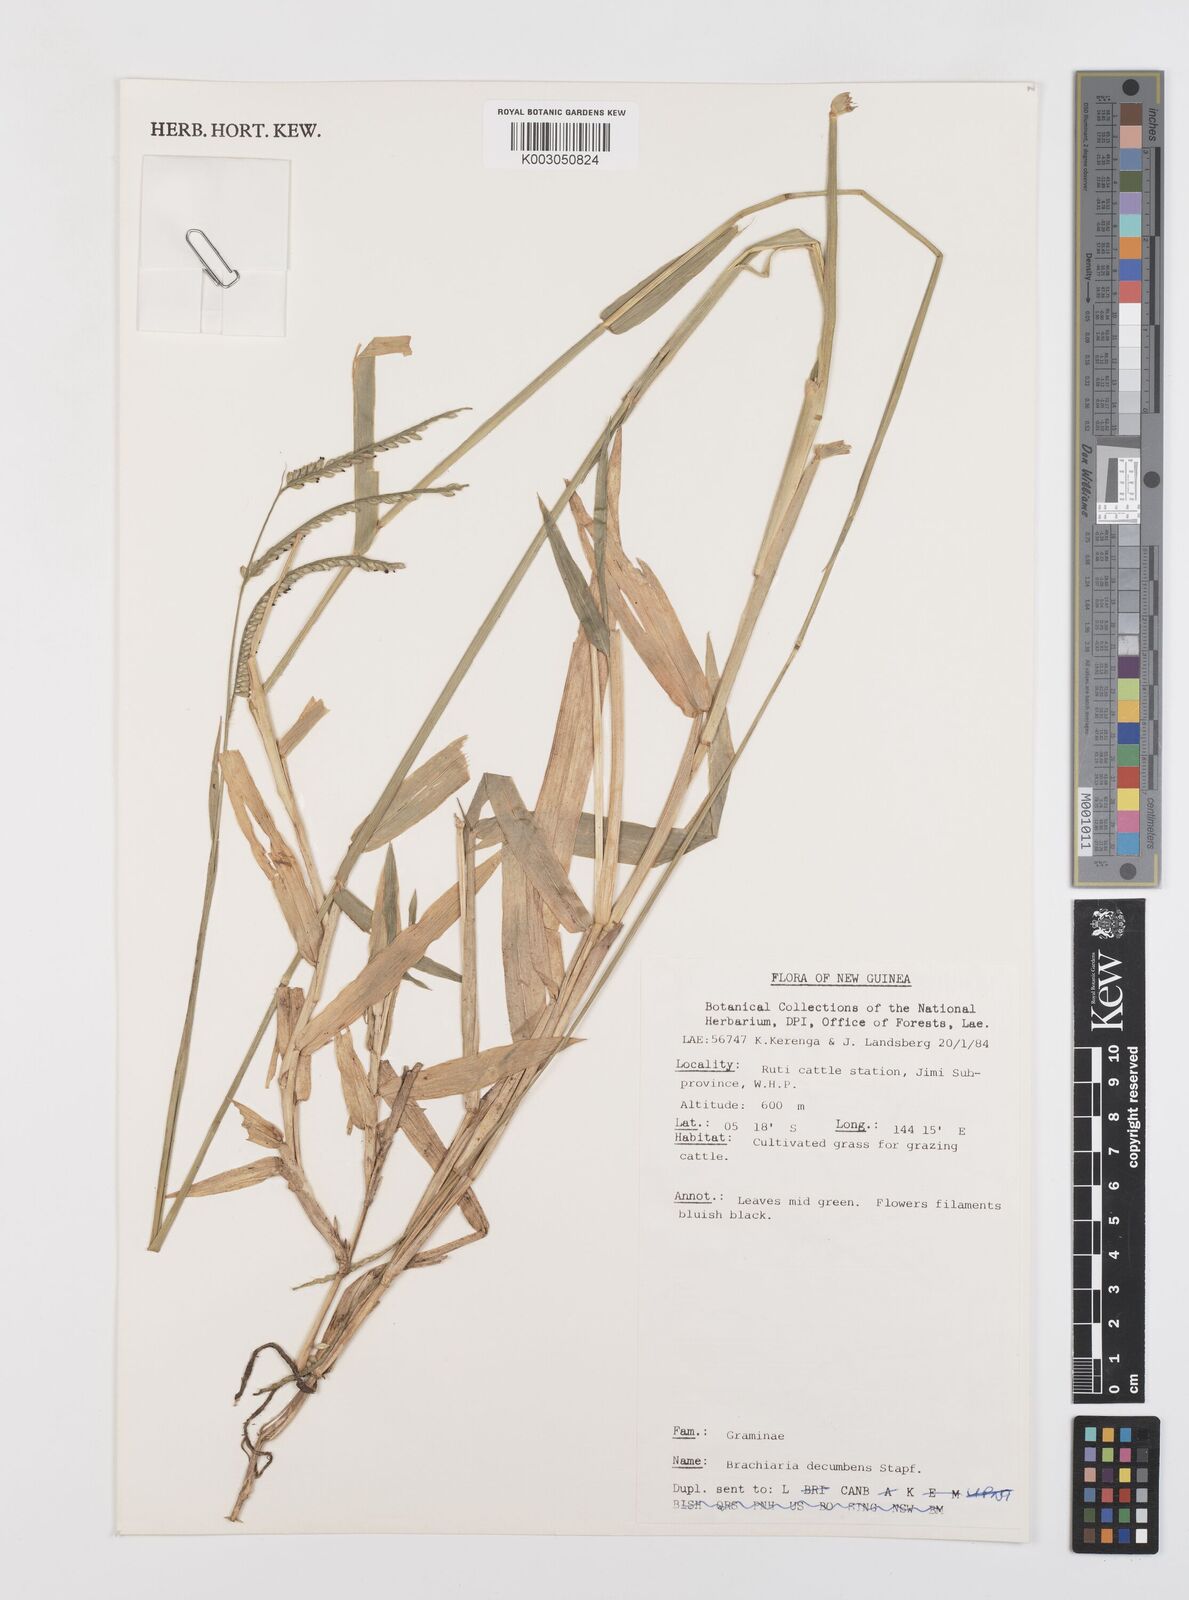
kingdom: Plantae
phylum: Tracheophyta
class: Liliopsida
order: Poales
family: Poaceae
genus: Urochloa
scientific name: Urochloa eminii
